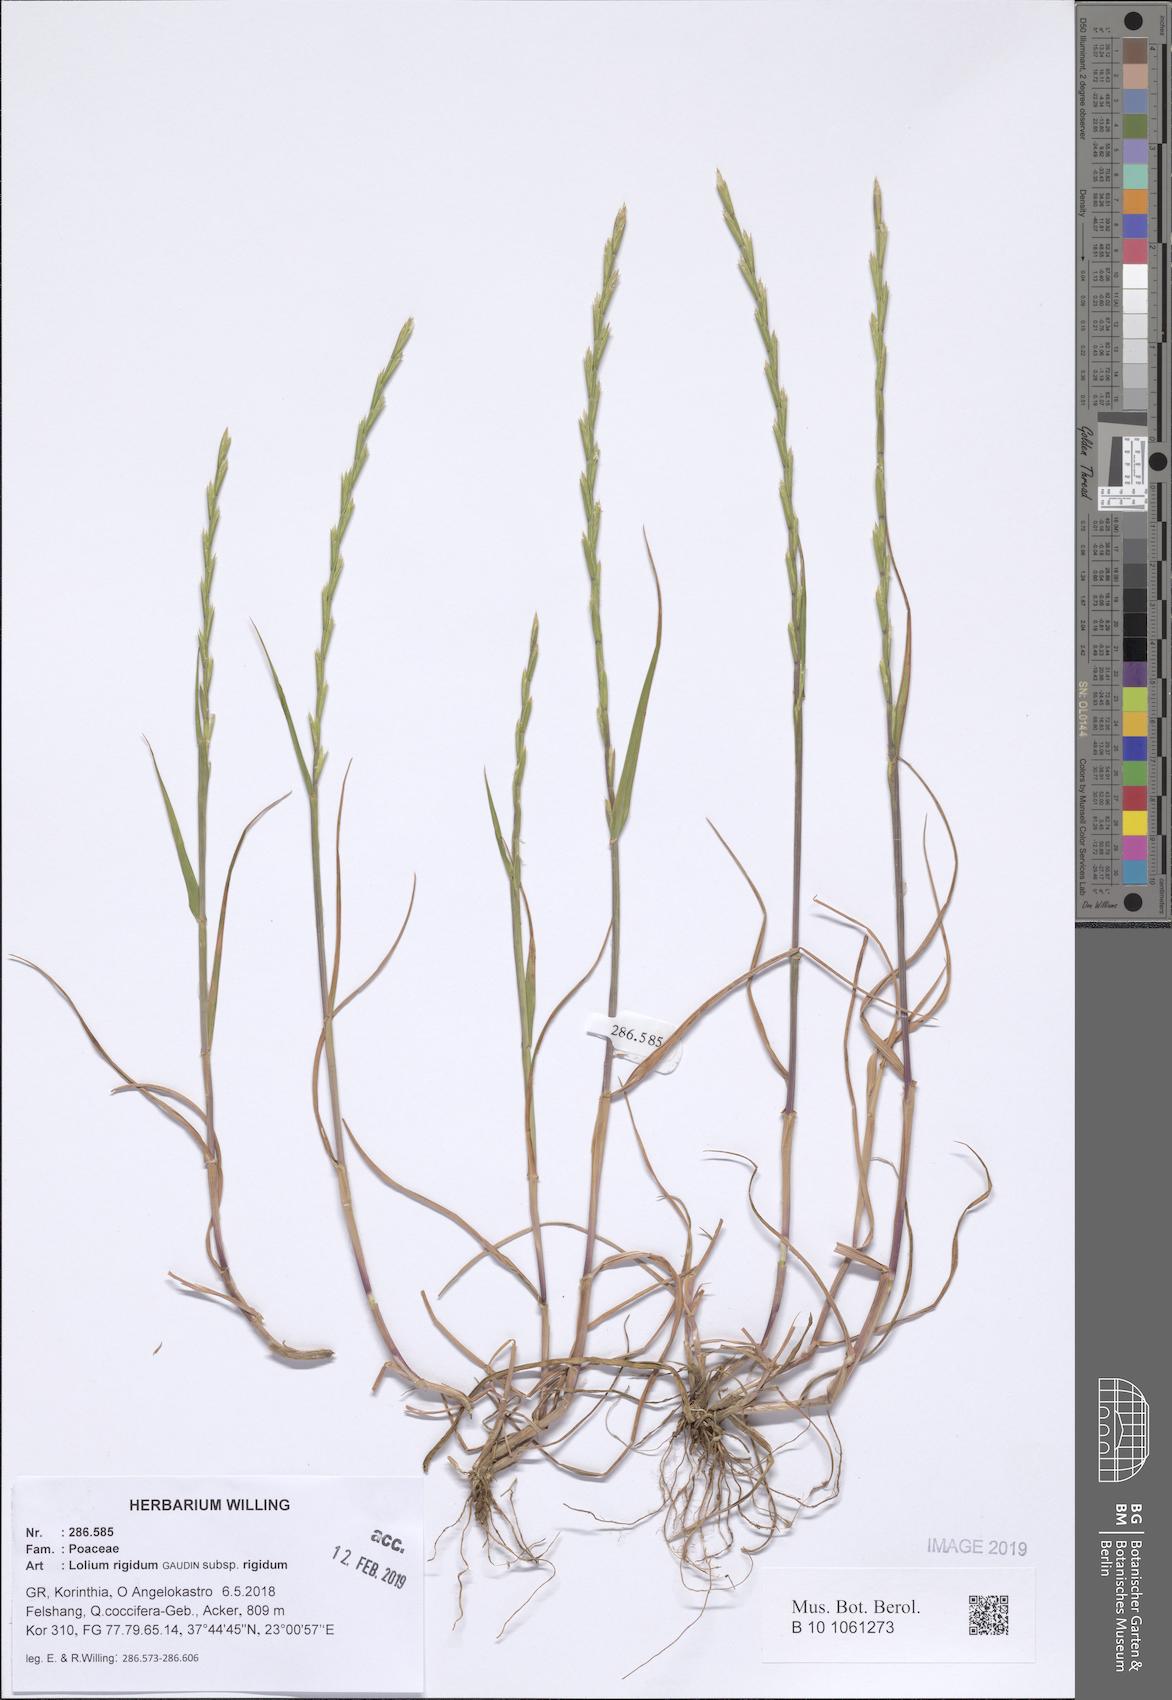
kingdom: Plantae
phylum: Tracheophyta
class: Liliopsida
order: Poales
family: Poaceae
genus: Lolium
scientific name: Lolium rigidum
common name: Wimmera ryegrass
